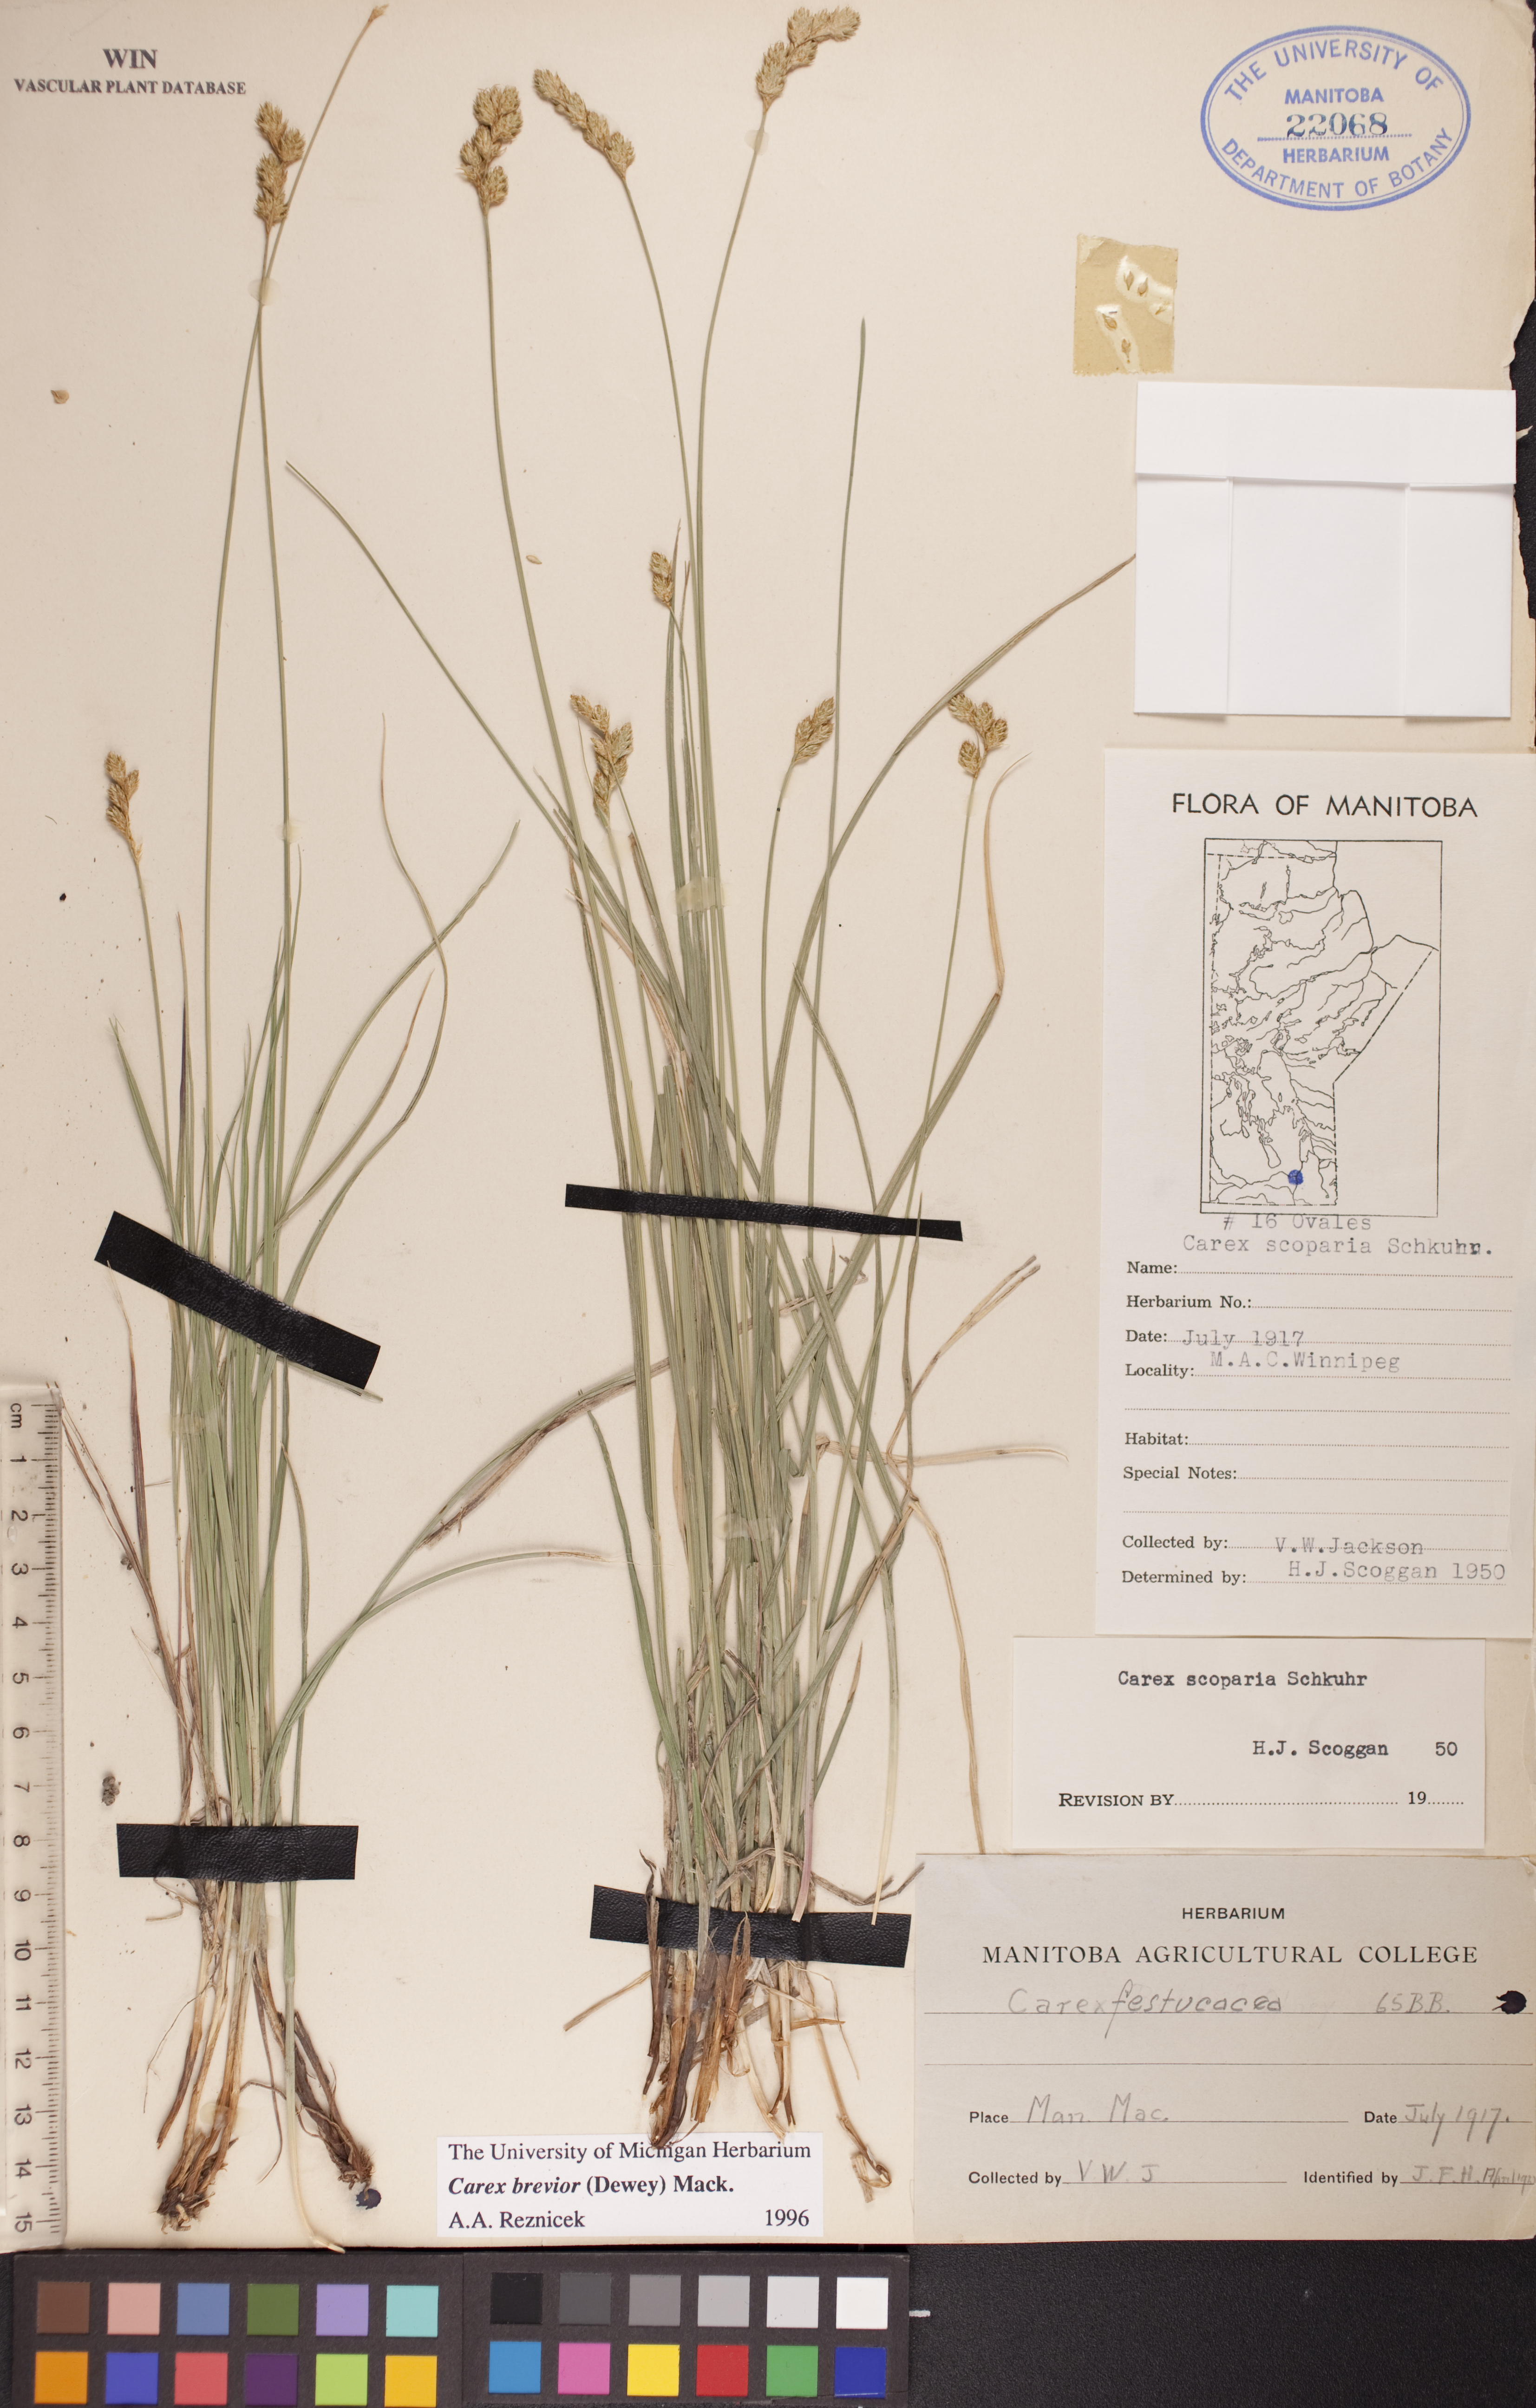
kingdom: Plantae
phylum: Tracheophyta
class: Liliopsida
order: Poales
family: Cyperaceae
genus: Carex
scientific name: Carex brevior
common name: Brevior sedge
